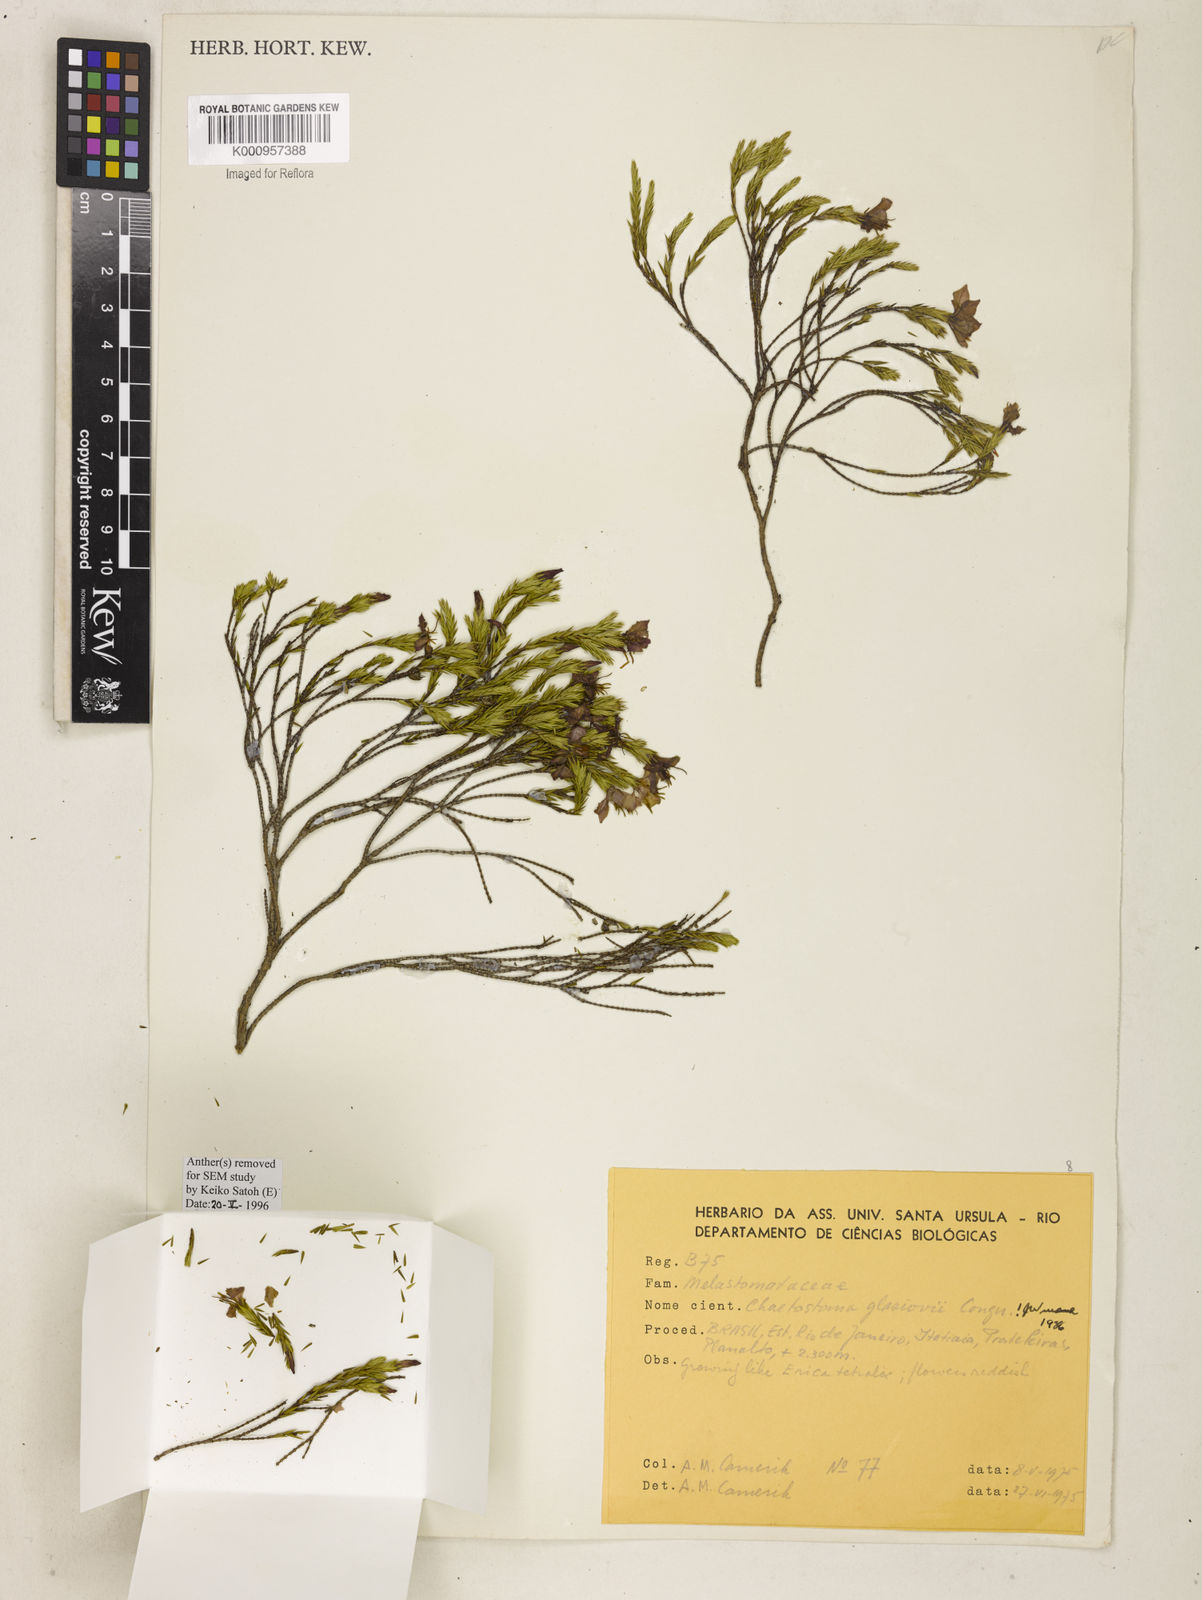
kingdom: Plantae
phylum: Tracheophyta
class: Magnoliopsida
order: Myrtales
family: Melastomataceae
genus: Microlicia
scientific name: Microlicia glaziovii
